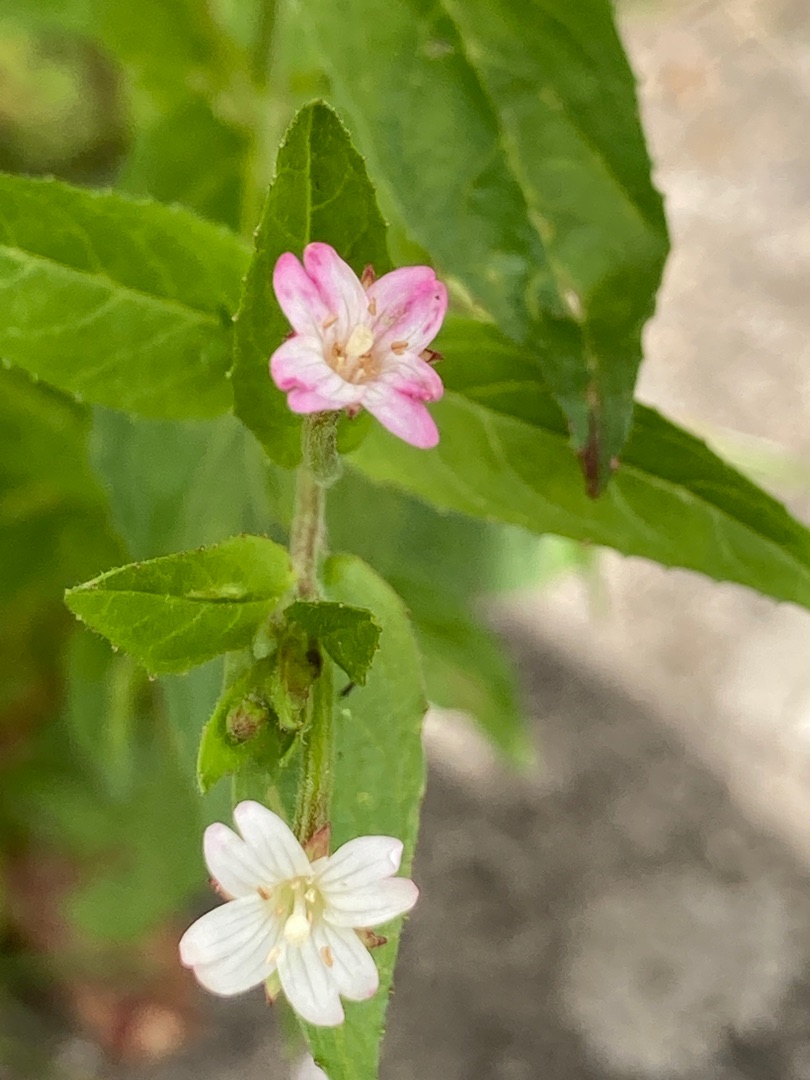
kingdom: Plantae
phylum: Tracheophyta
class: Magnoliopsida
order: Myrtales
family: Onagraceae
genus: Epilobium
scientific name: Epilobium
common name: Dueurtslægten
